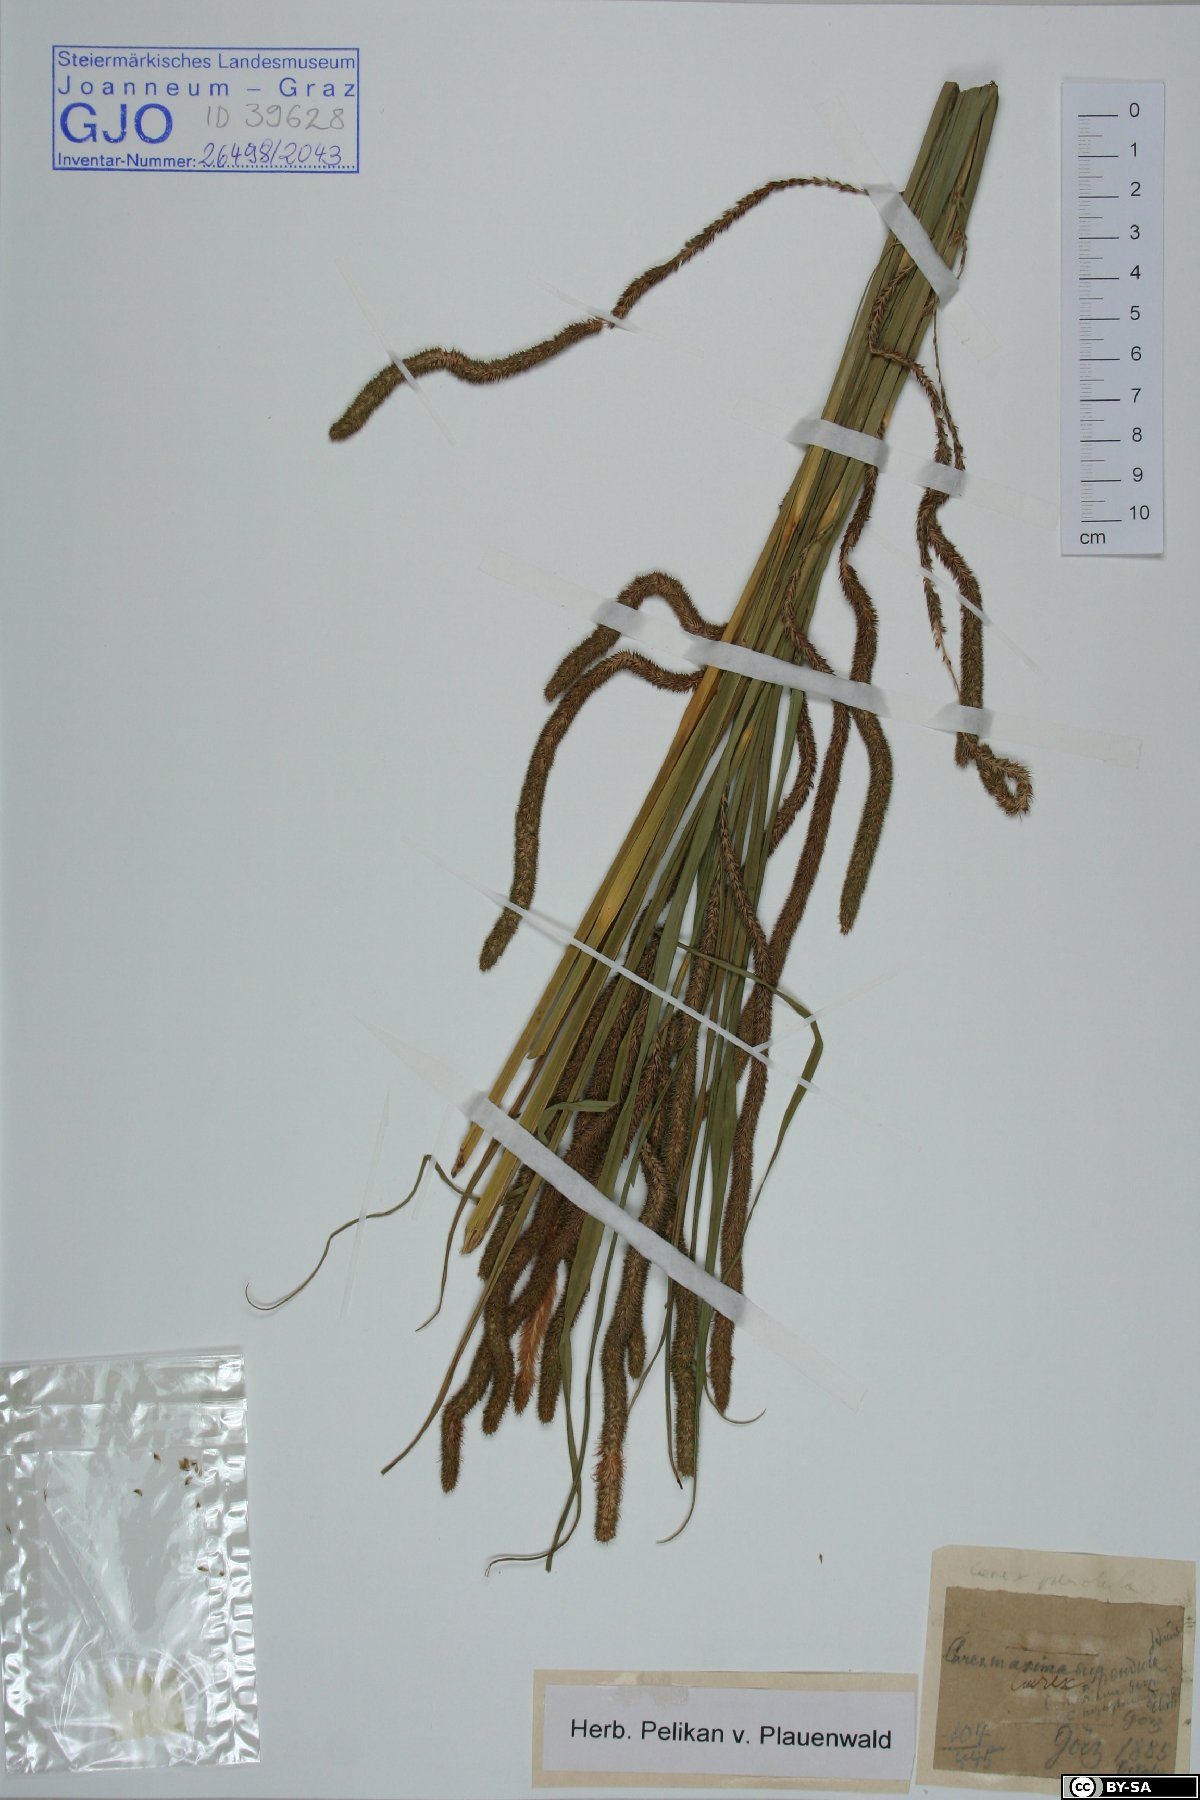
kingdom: Plantae
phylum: Tracheophyta
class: Liliopsida
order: Poales
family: Cyperaceae
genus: Carex
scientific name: Carex pendula
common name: Pendulous sedge
